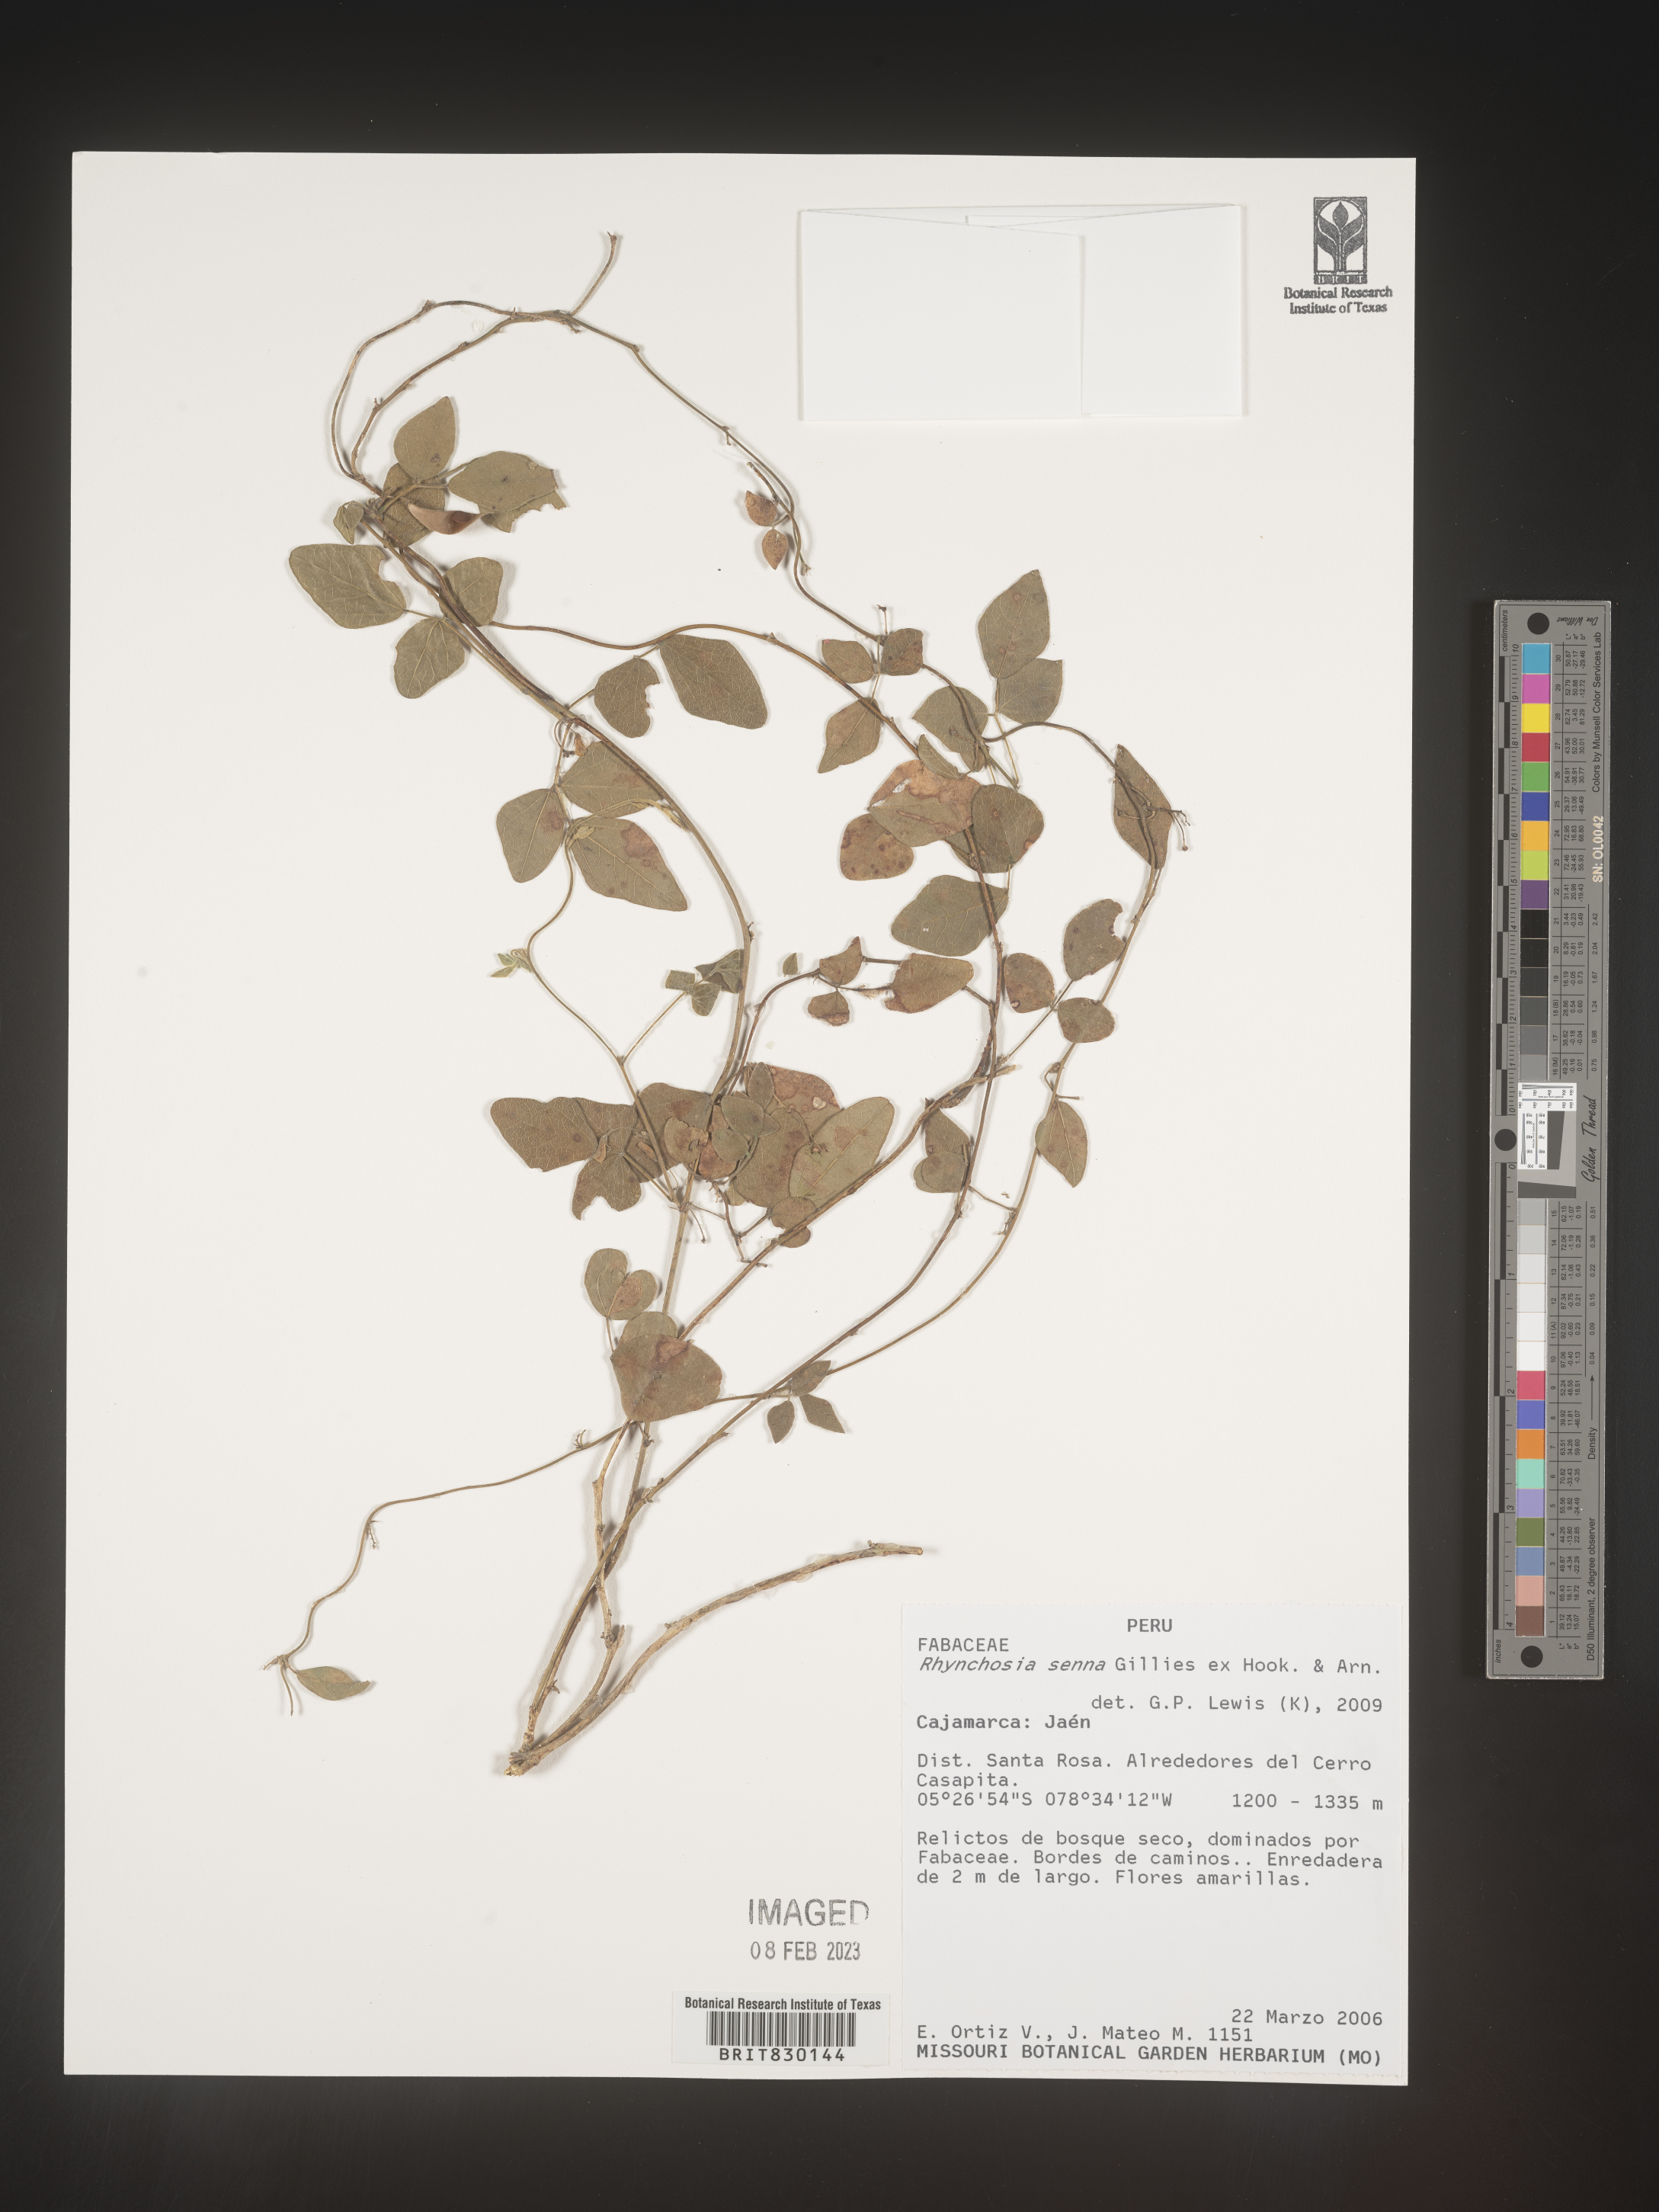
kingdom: Plantae
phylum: Tracheophyta
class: Magnoliopsida
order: Fabales
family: Fabaceae
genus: Rhynchosia
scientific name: Rhynchosia
